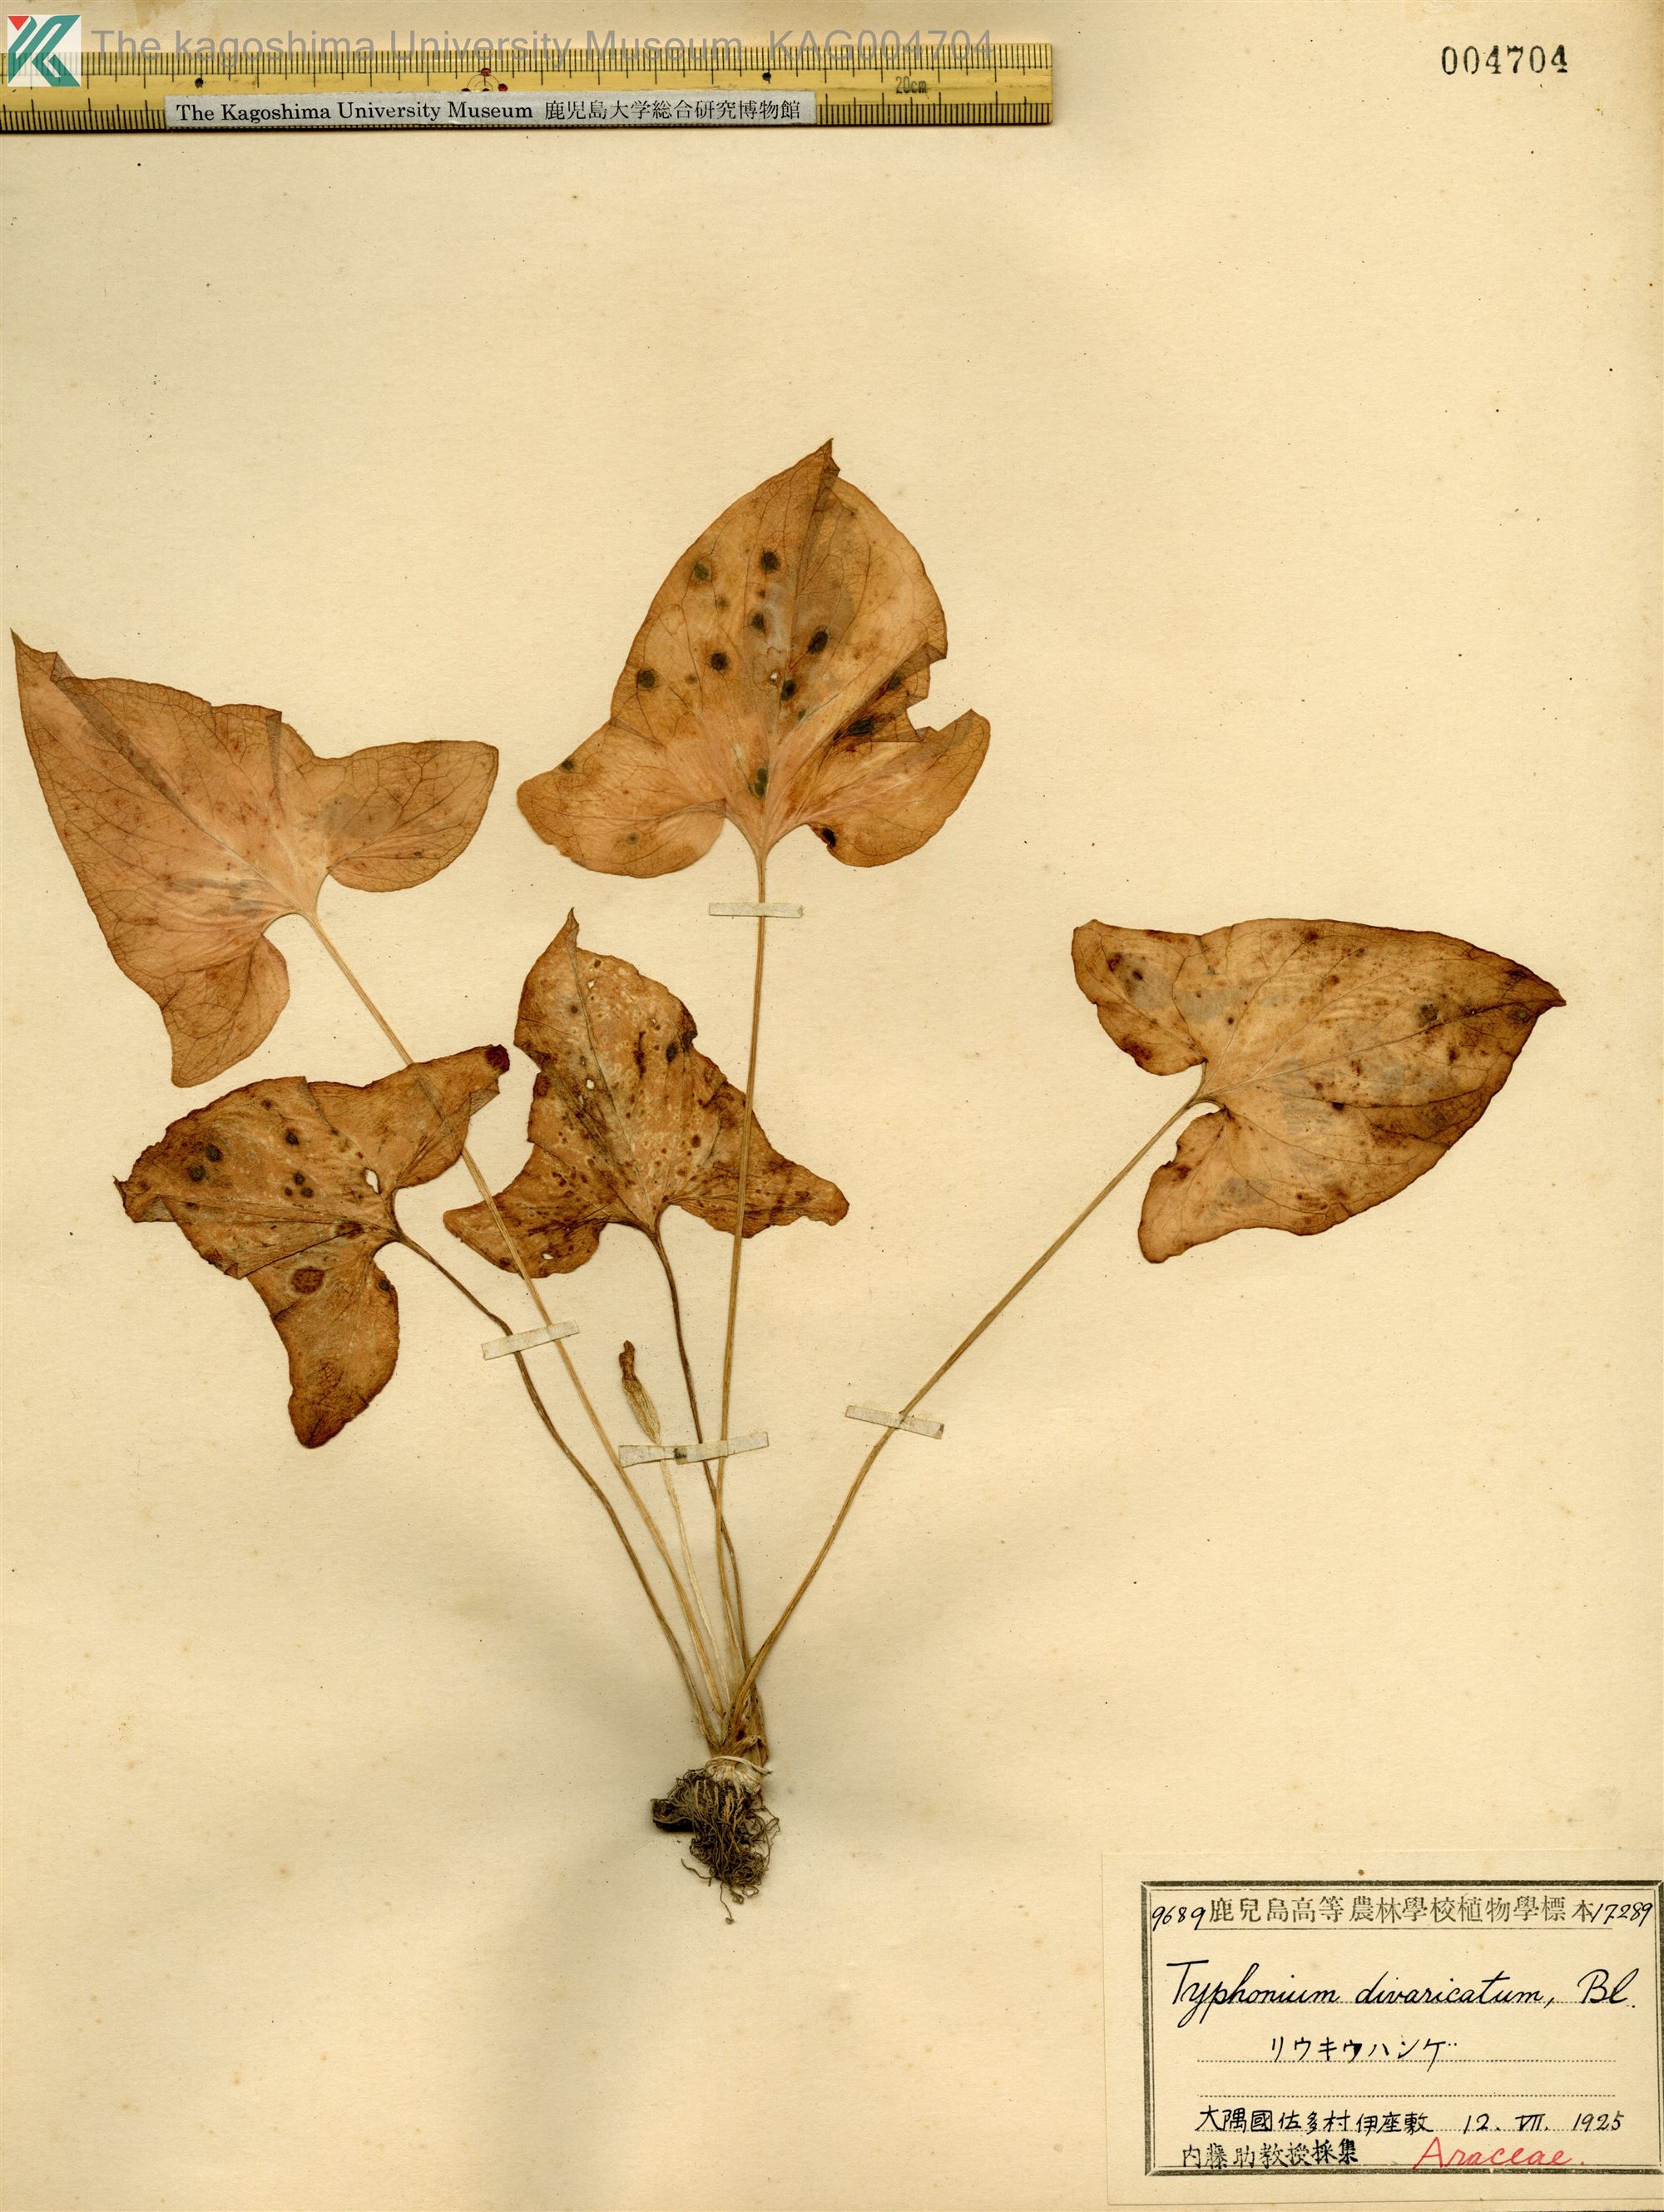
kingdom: Plantae
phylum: Tracheophyta
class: Liliopsida
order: Alismatales
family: Araceae
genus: Typhonium
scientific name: Typhonium
